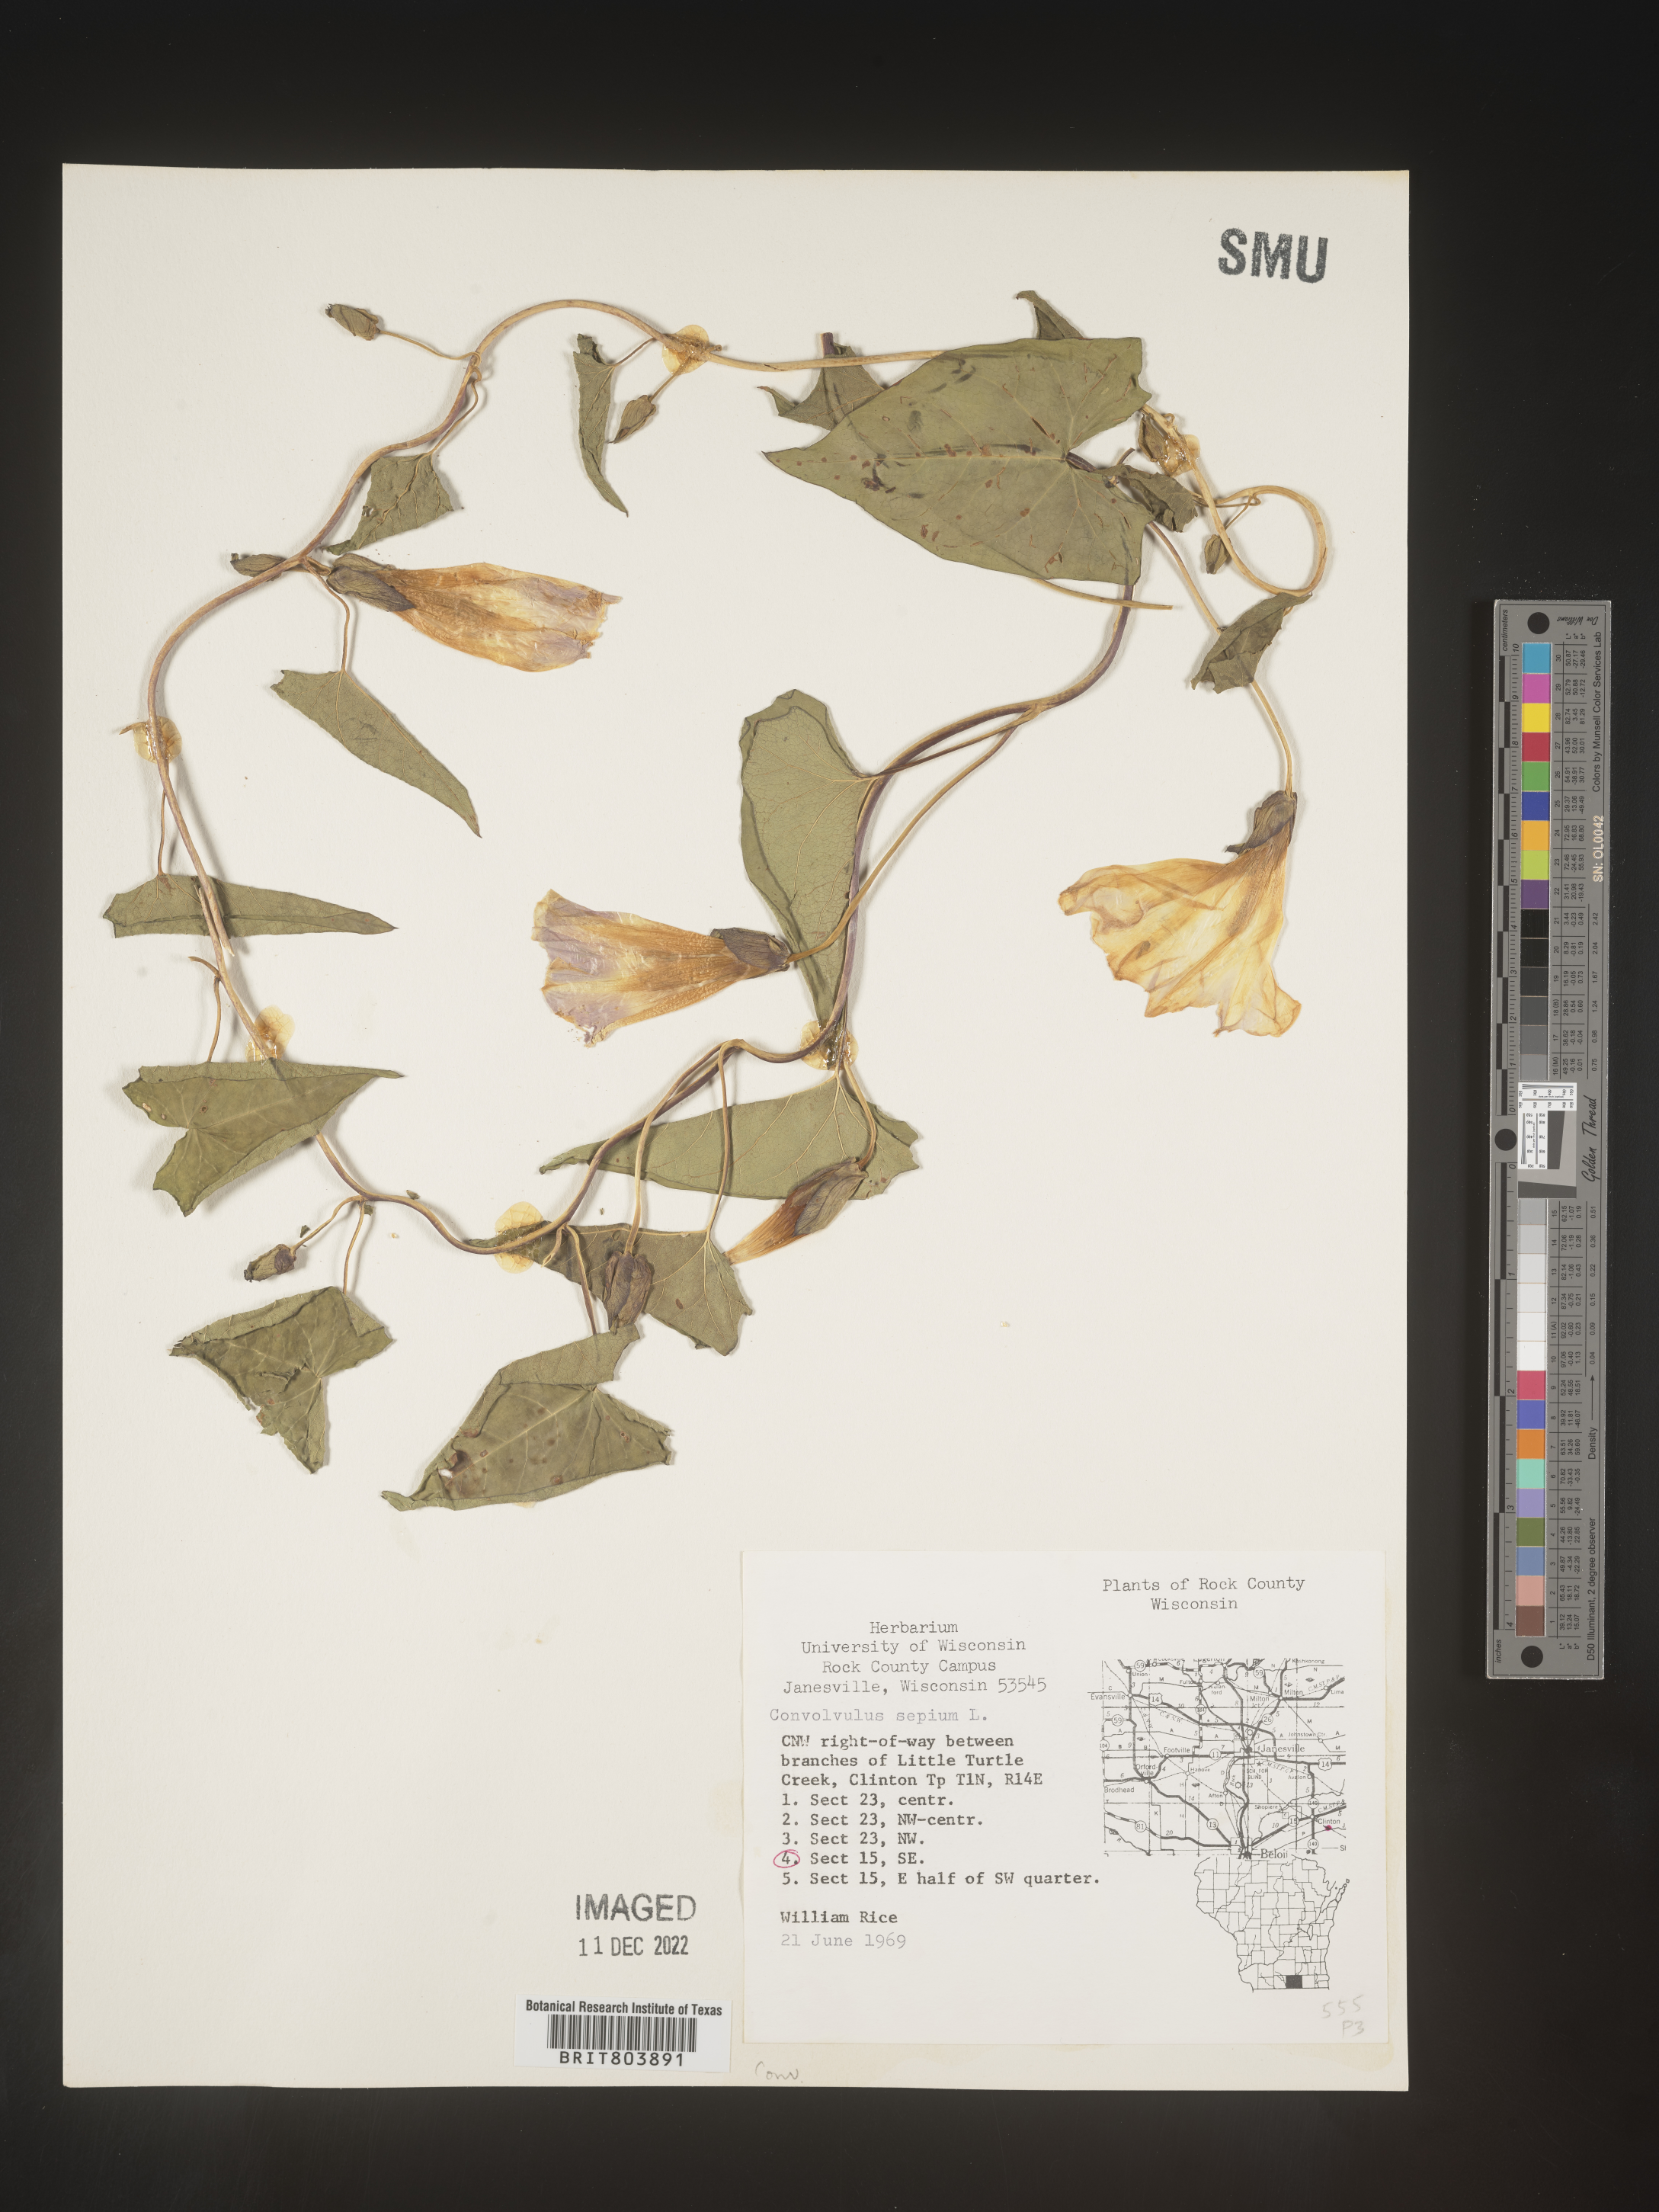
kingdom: Plantae
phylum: Tracheophyta
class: Magnoliopsida
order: Solanales
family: Convolvulaceae
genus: Calystegia
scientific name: Calystegia sepium
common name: Hedge bindweed
